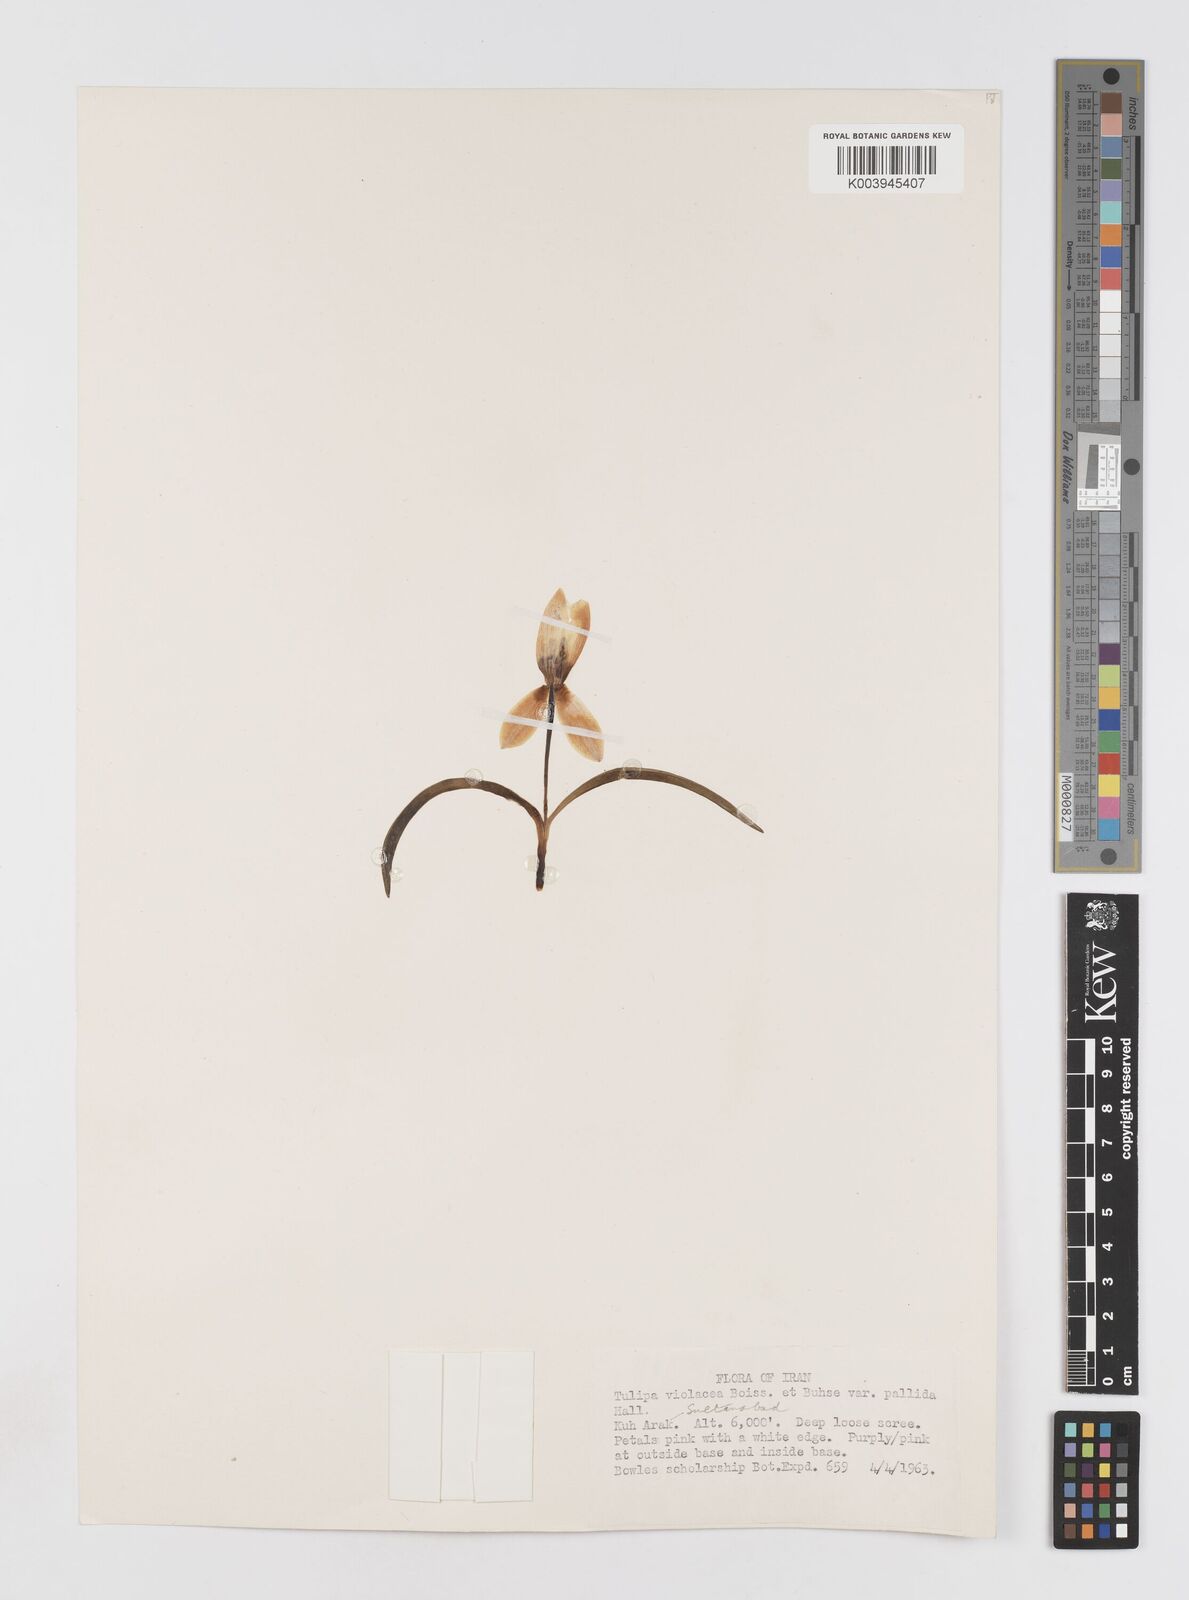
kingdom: Plantae
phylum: Tracheophyta
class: Liliopsida
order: Liliales
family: Liliaceae
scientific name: Liliaceae
